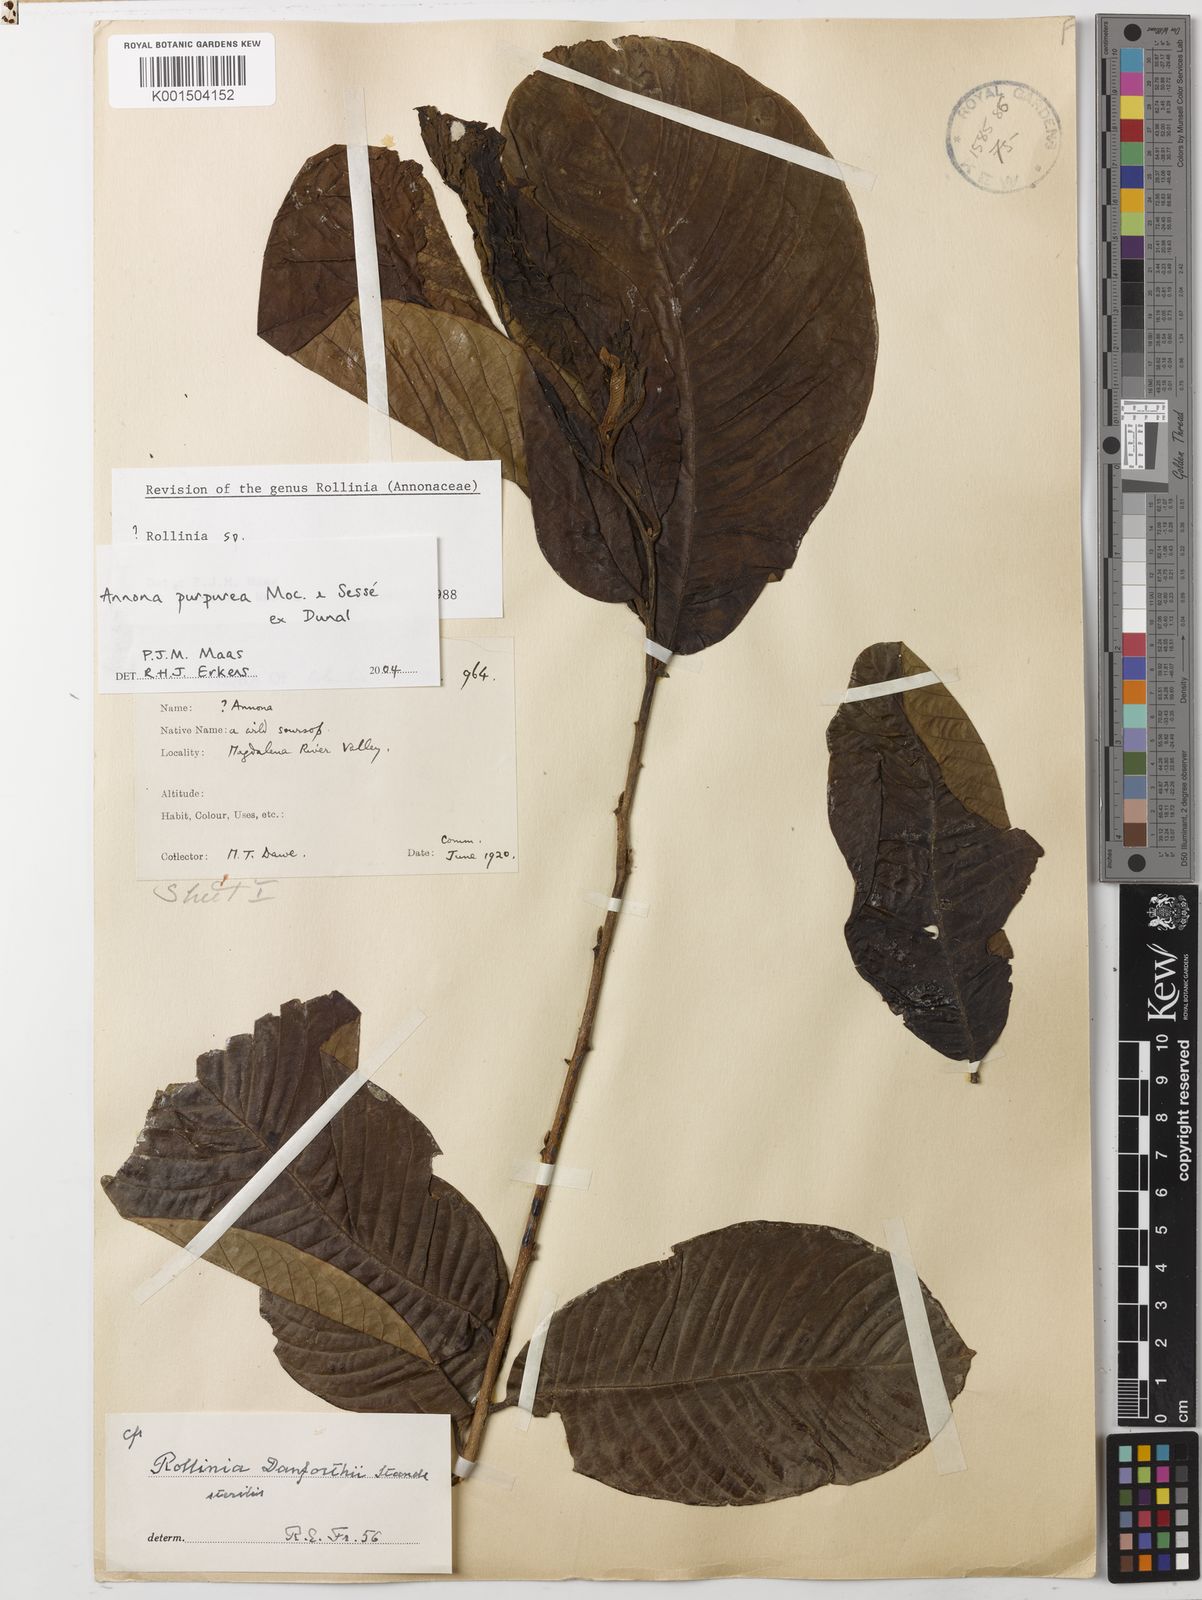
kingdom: Plantae
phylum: Tracheophyta
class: Magnoliopsida
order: Magnoliales
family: Annonaceae
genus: Annona
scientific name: Annona purpurea
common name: Negrohead
